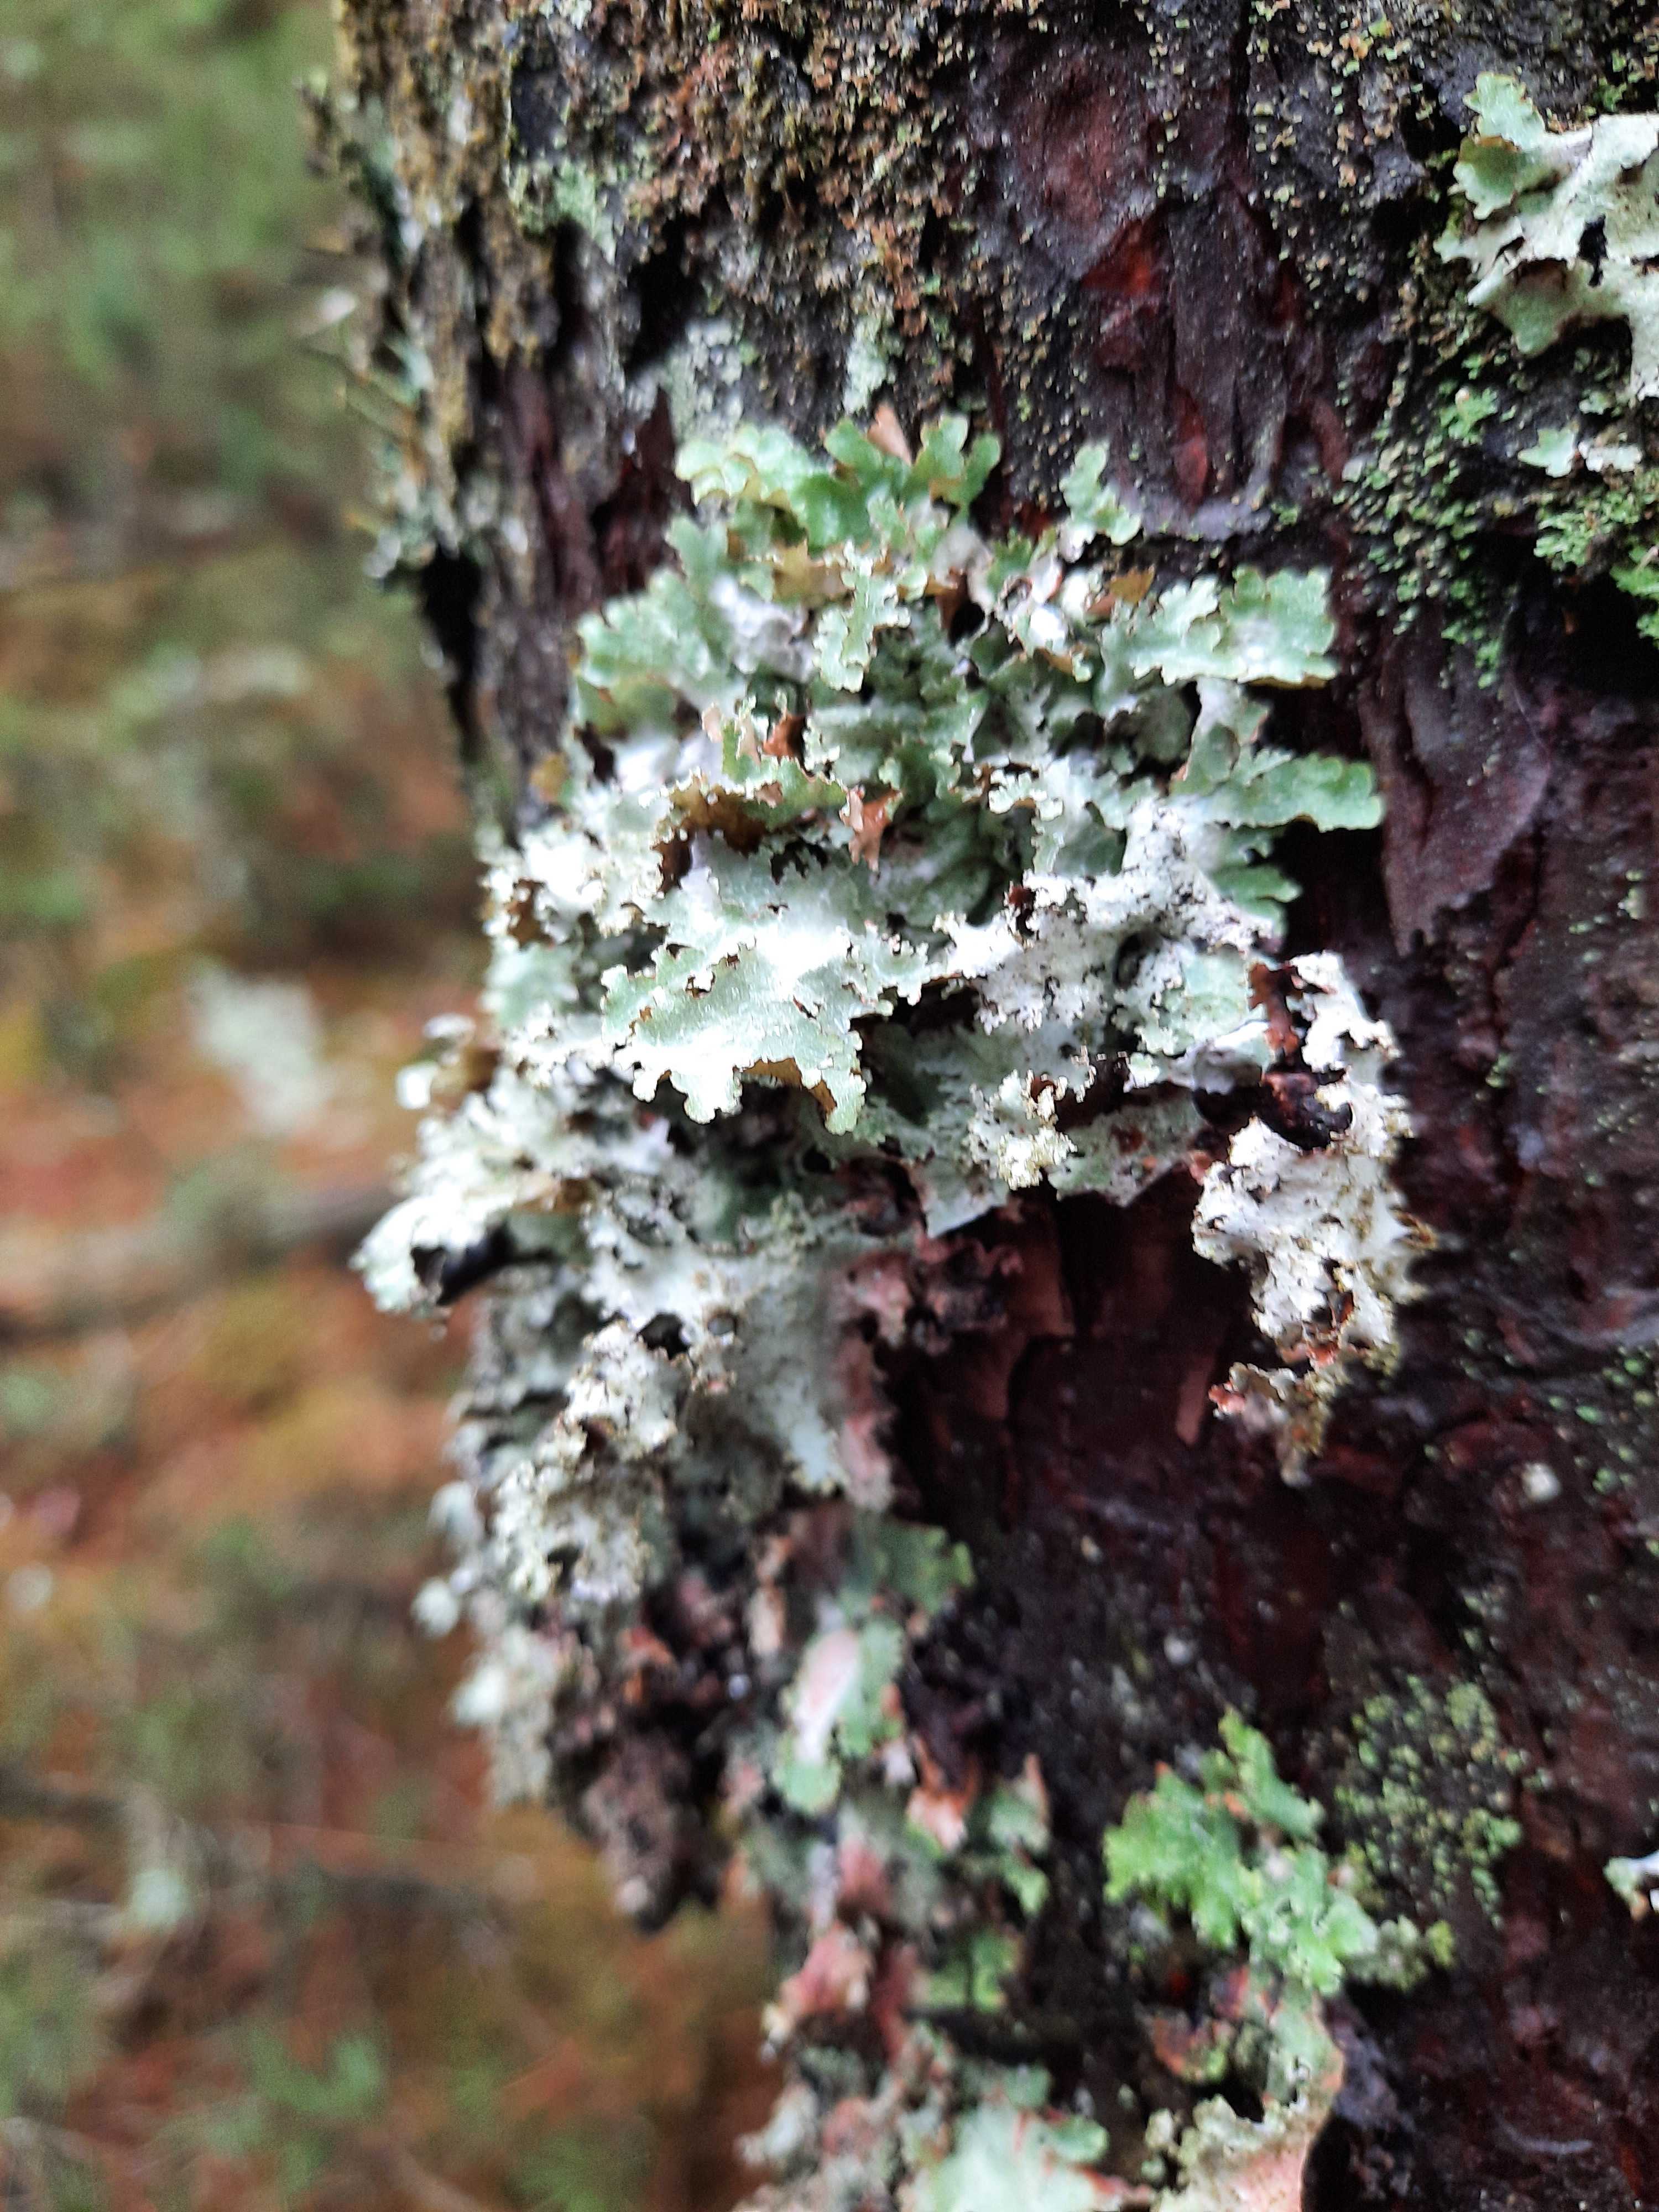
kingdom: Fungi
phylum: Ascomycota
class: Lecanoromycetes
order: Lecanorales
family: Parmeliaceae
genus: Platismatia
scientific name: Platismatia glauca
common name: blågrå papirlav
